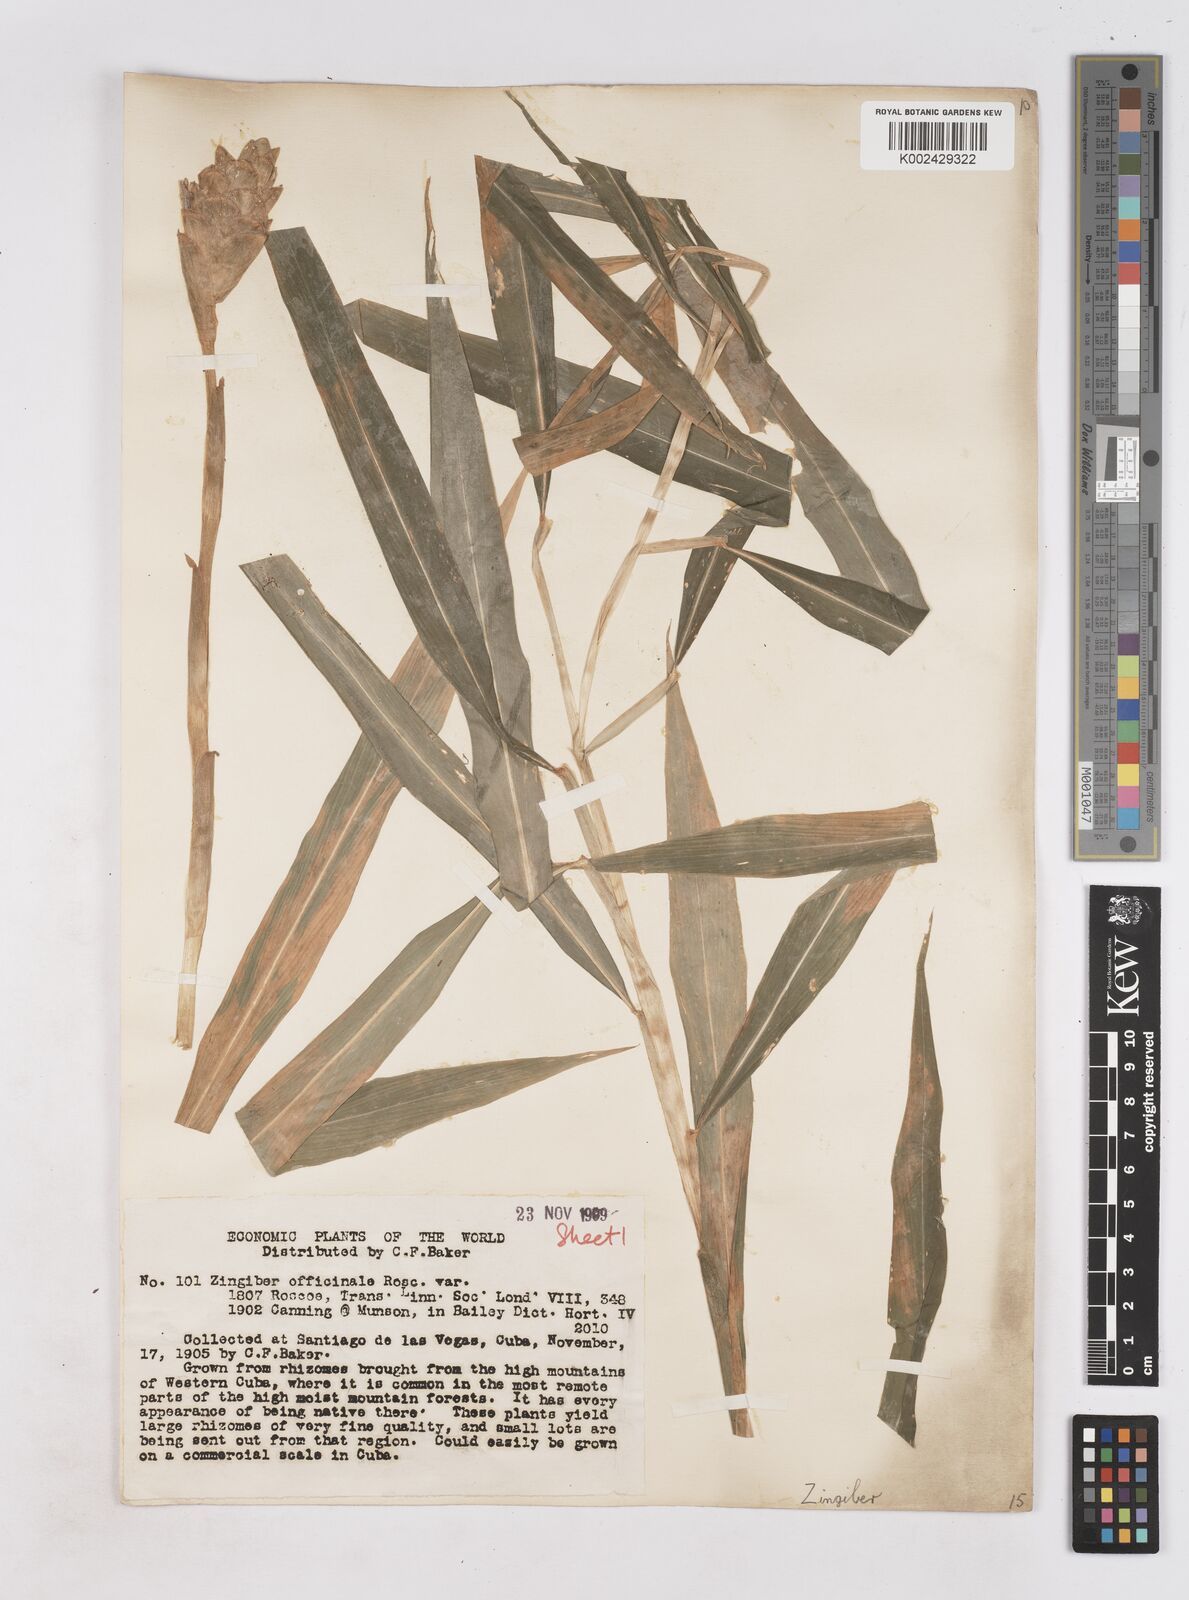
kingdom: Plantae
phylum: Tracheophyta
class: Liliopsida
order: Zingiberales
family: Zingiberaceae
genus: Zingiber
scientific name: Zingiber officinale
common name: Ginger
